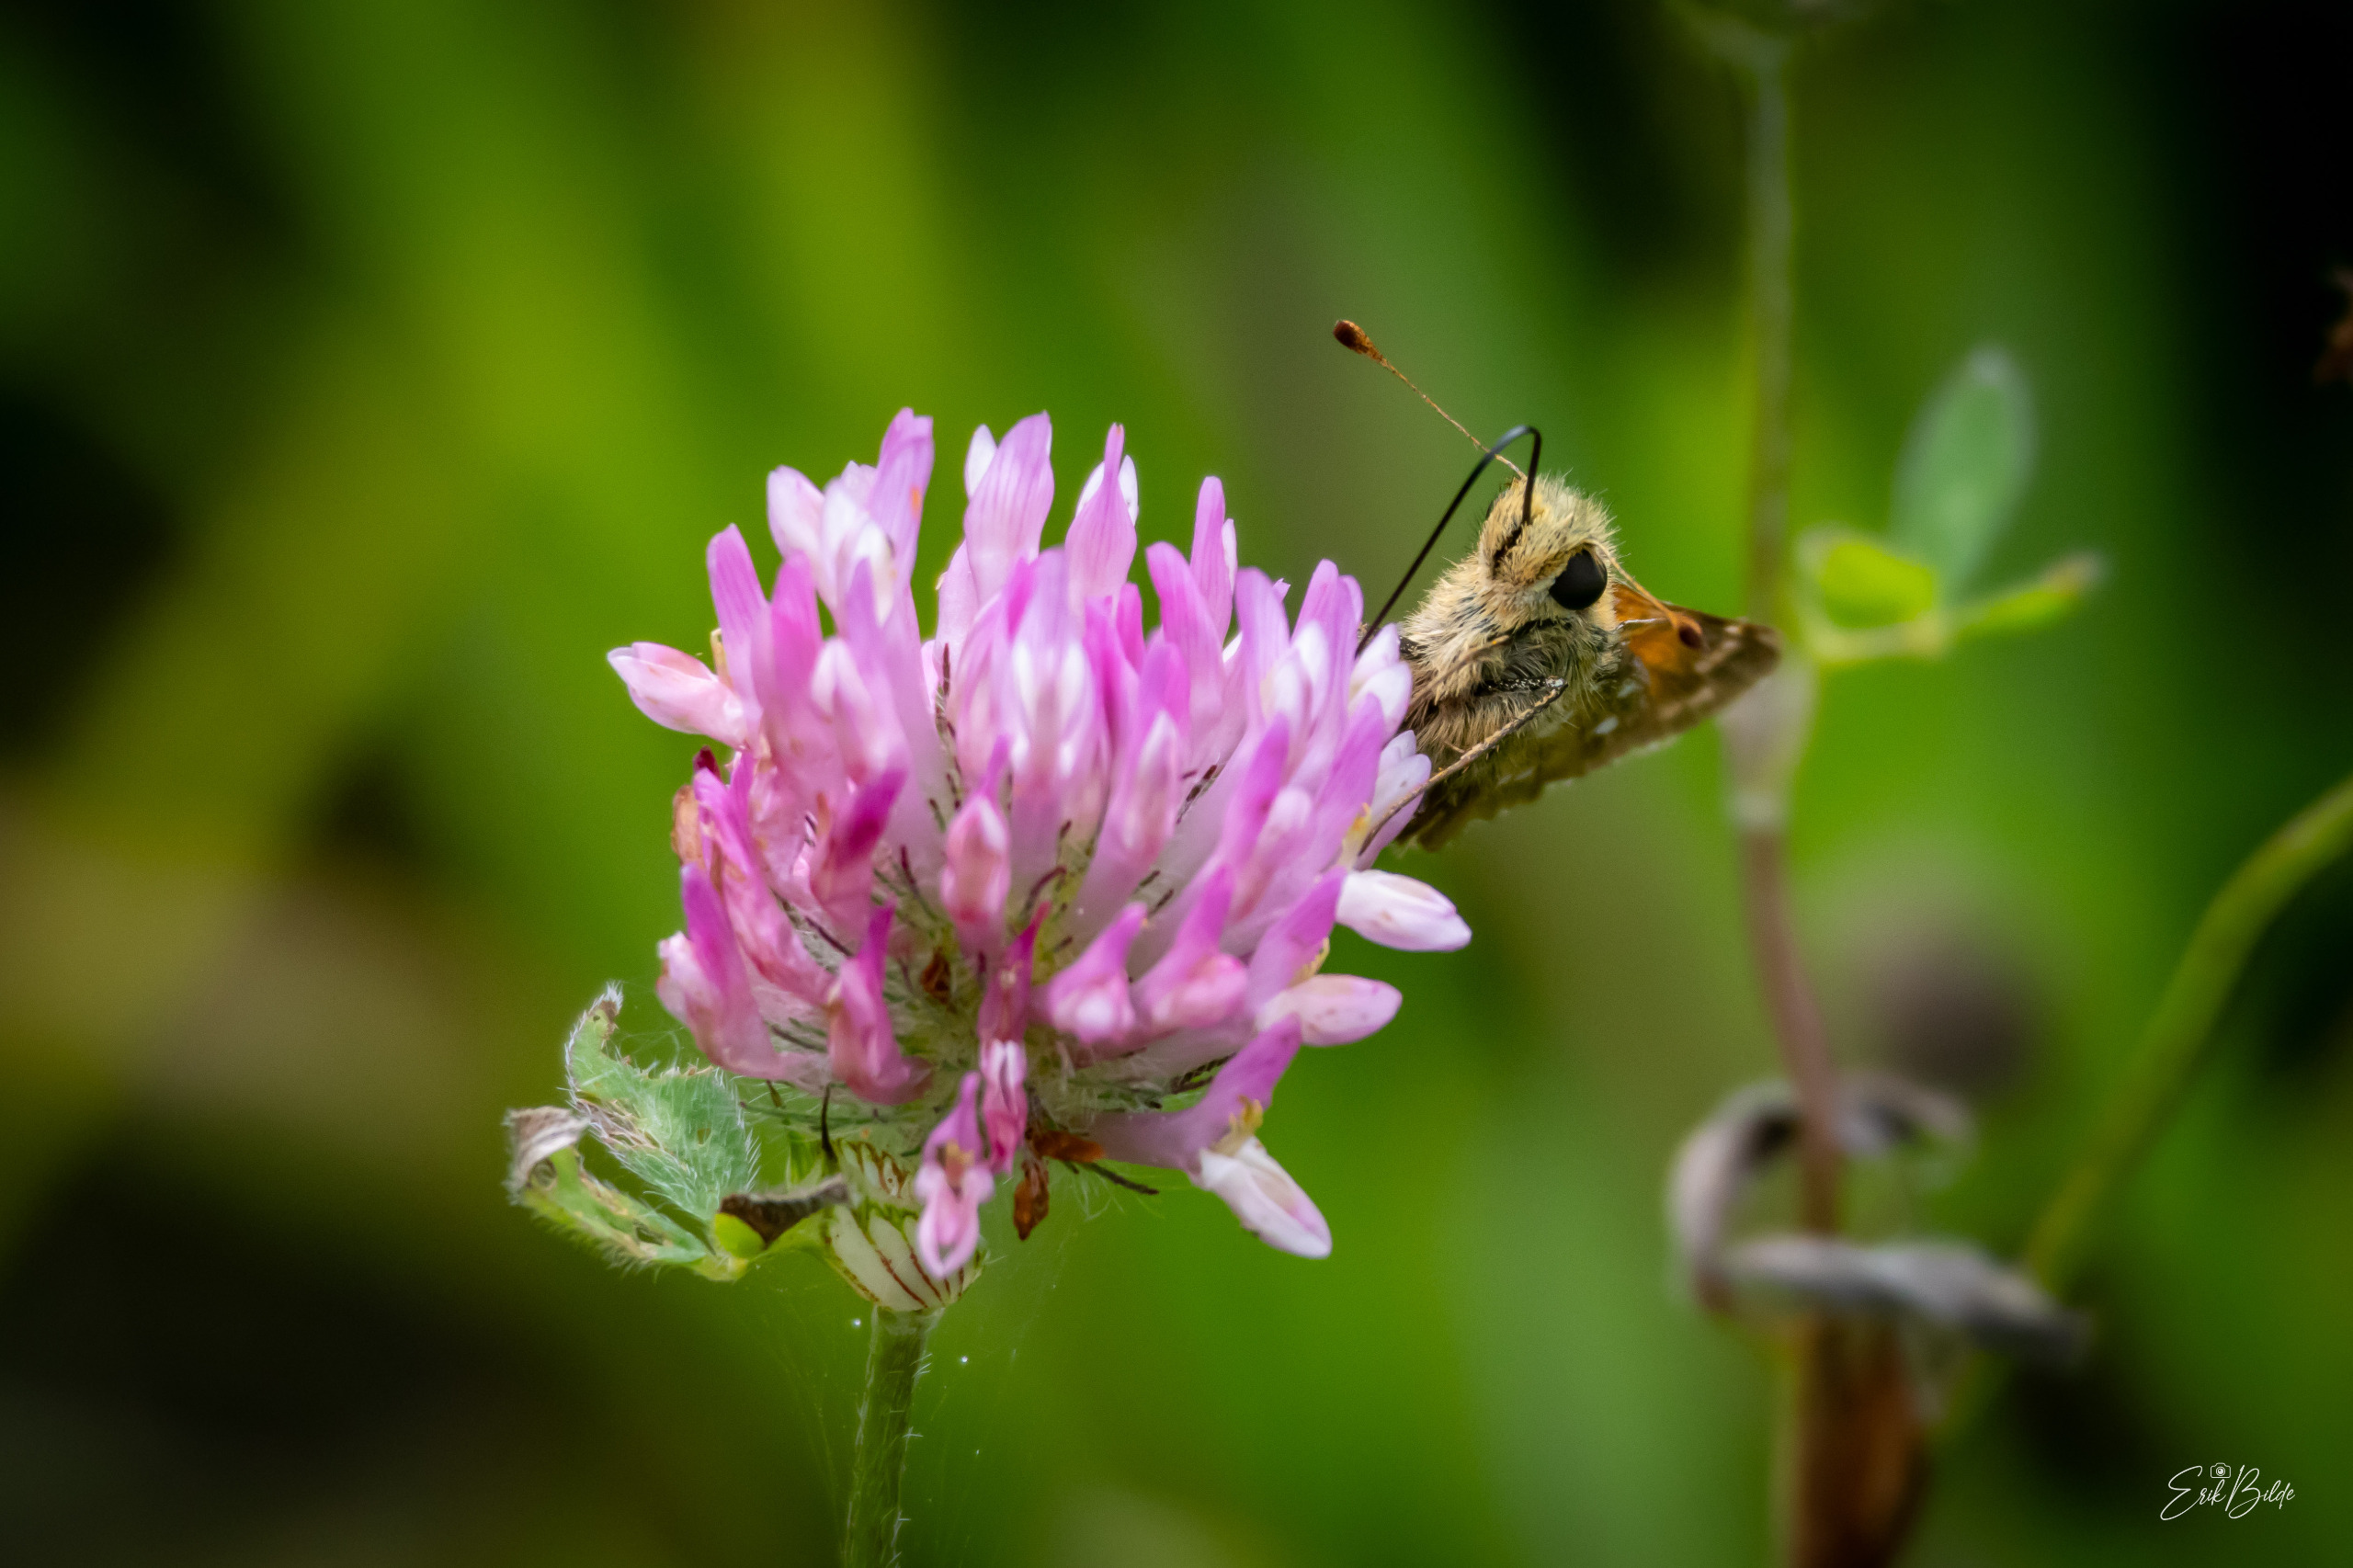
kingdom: Animalia
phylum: Arthropoda
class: Insecta
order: Lepidoptera
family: Hesperiidae
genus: Hesperia
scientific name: Hesperia comma
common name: Kommabredpande
